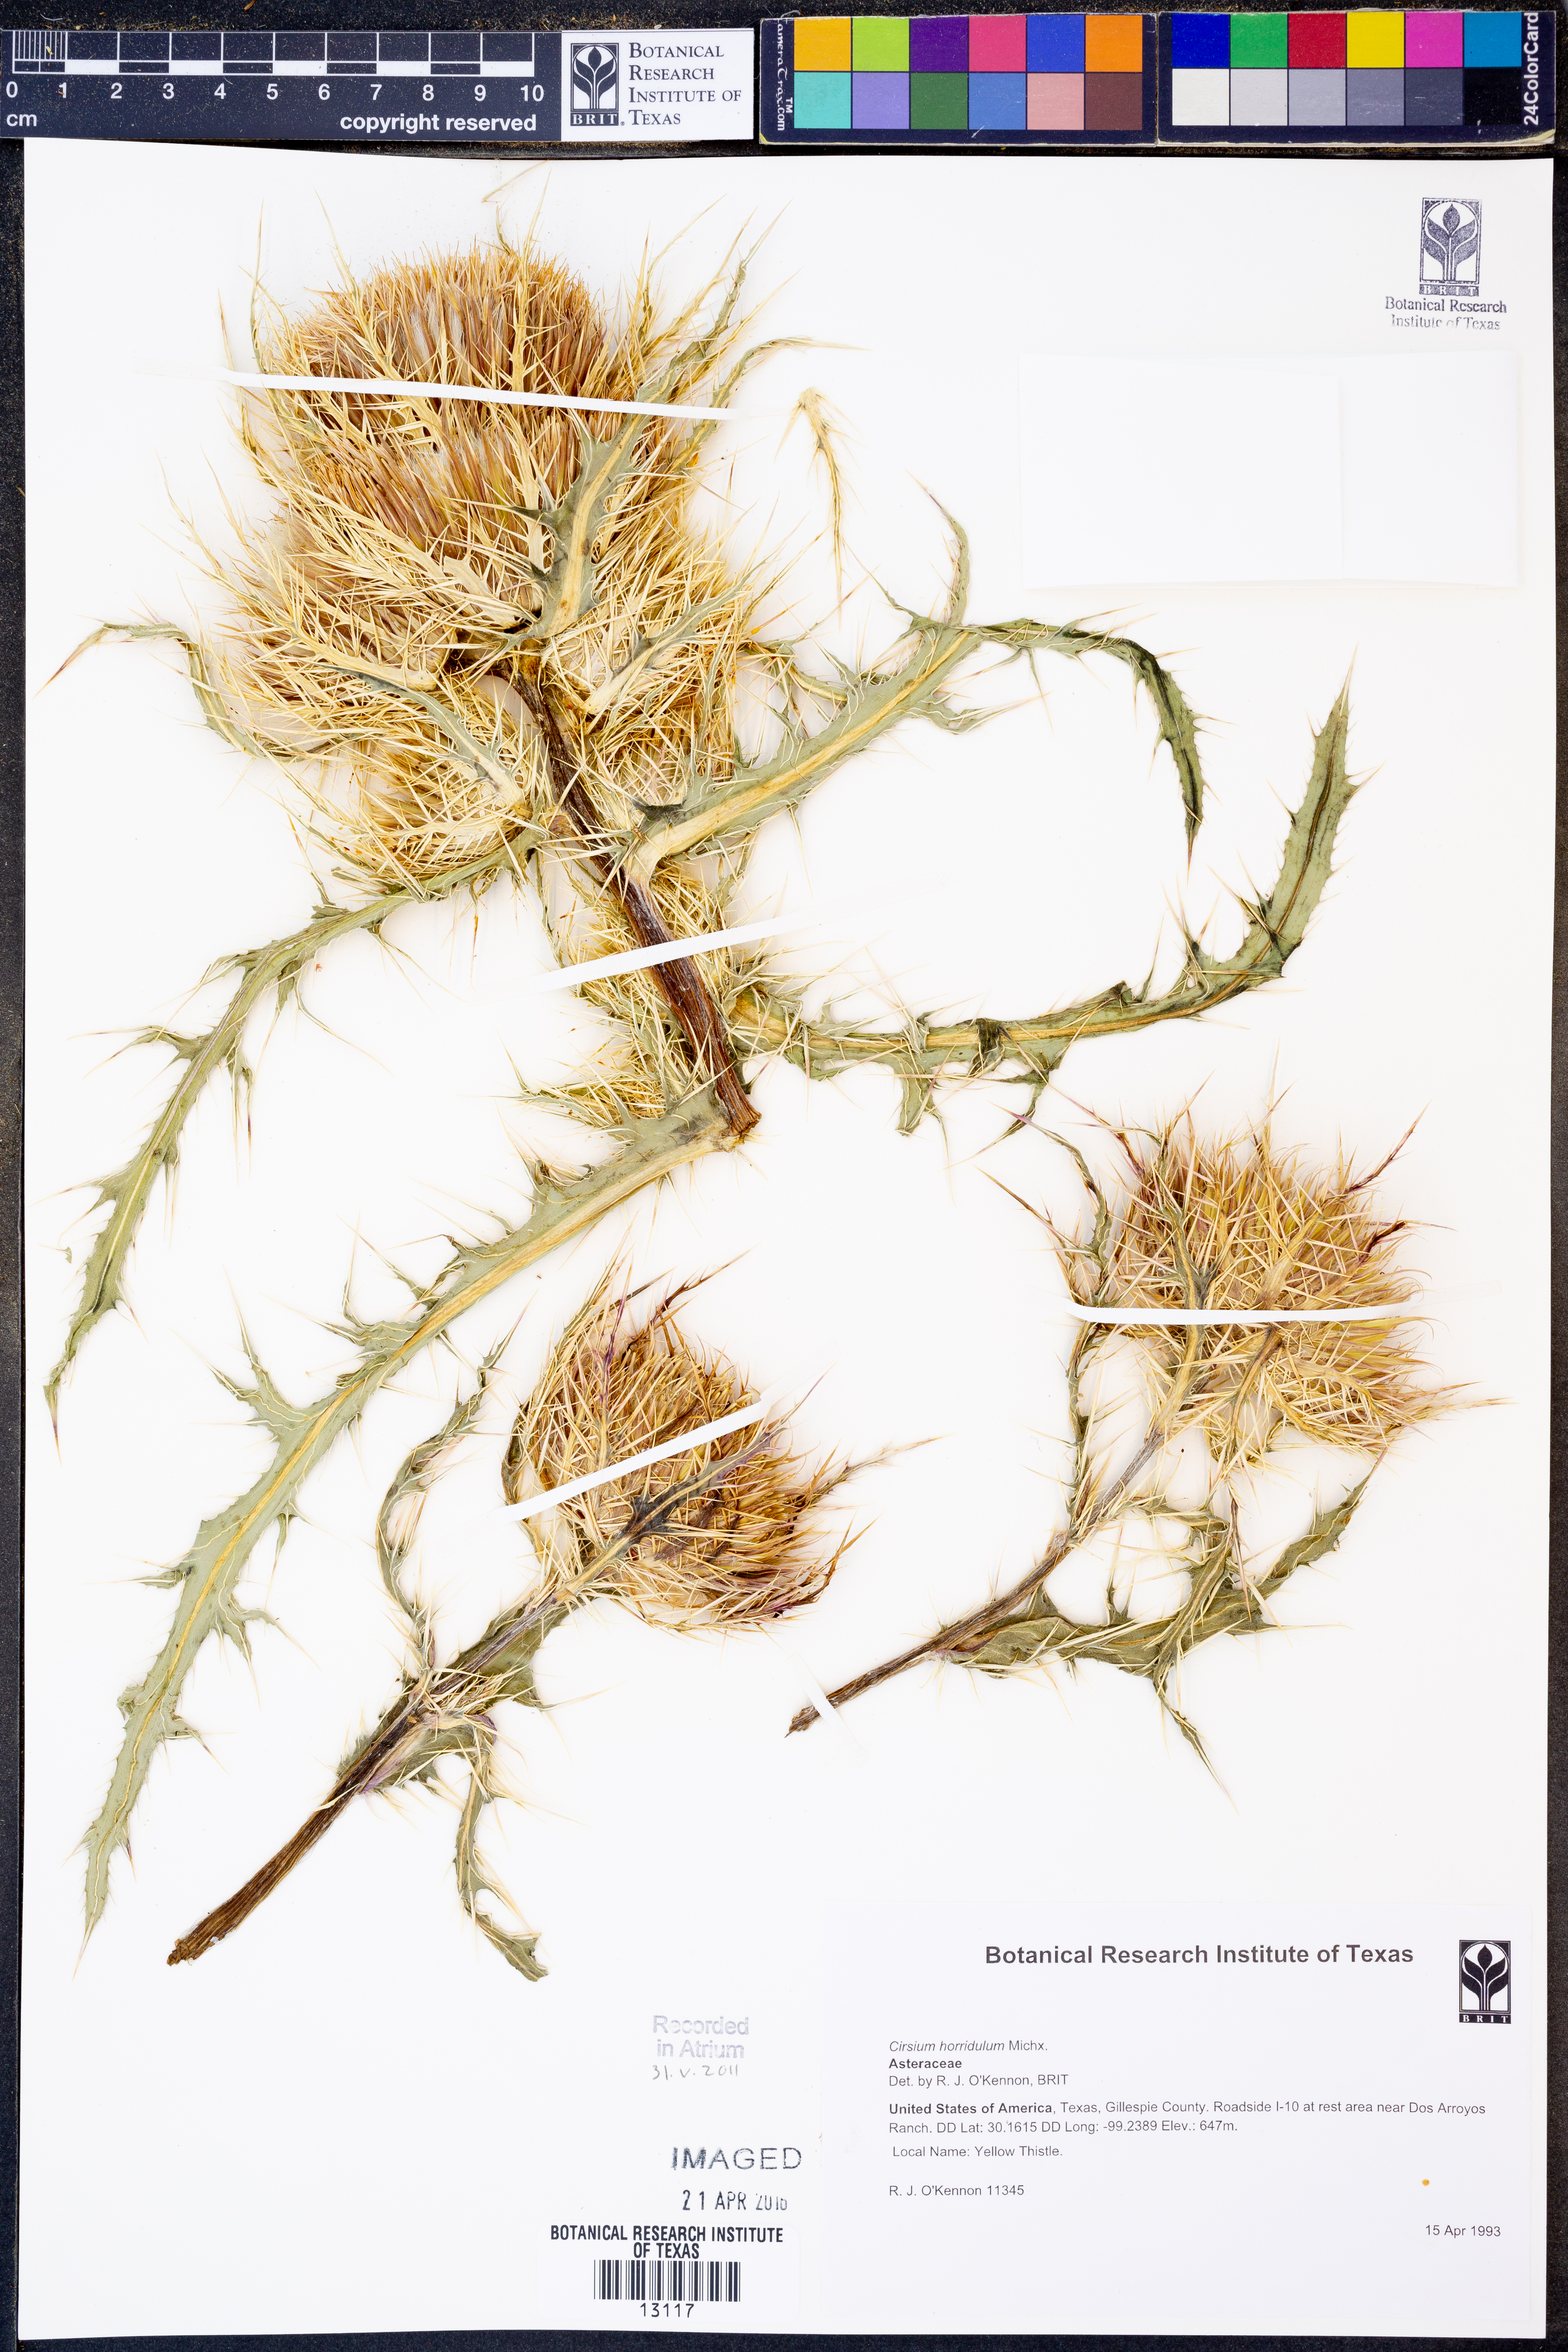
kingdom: Plantae
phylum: Tracheophyta
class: Magnoliopsida
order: Asterales
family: Asteraceae
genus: Cirsium
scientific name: Cirsium horridulum
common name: Bristly thistle
